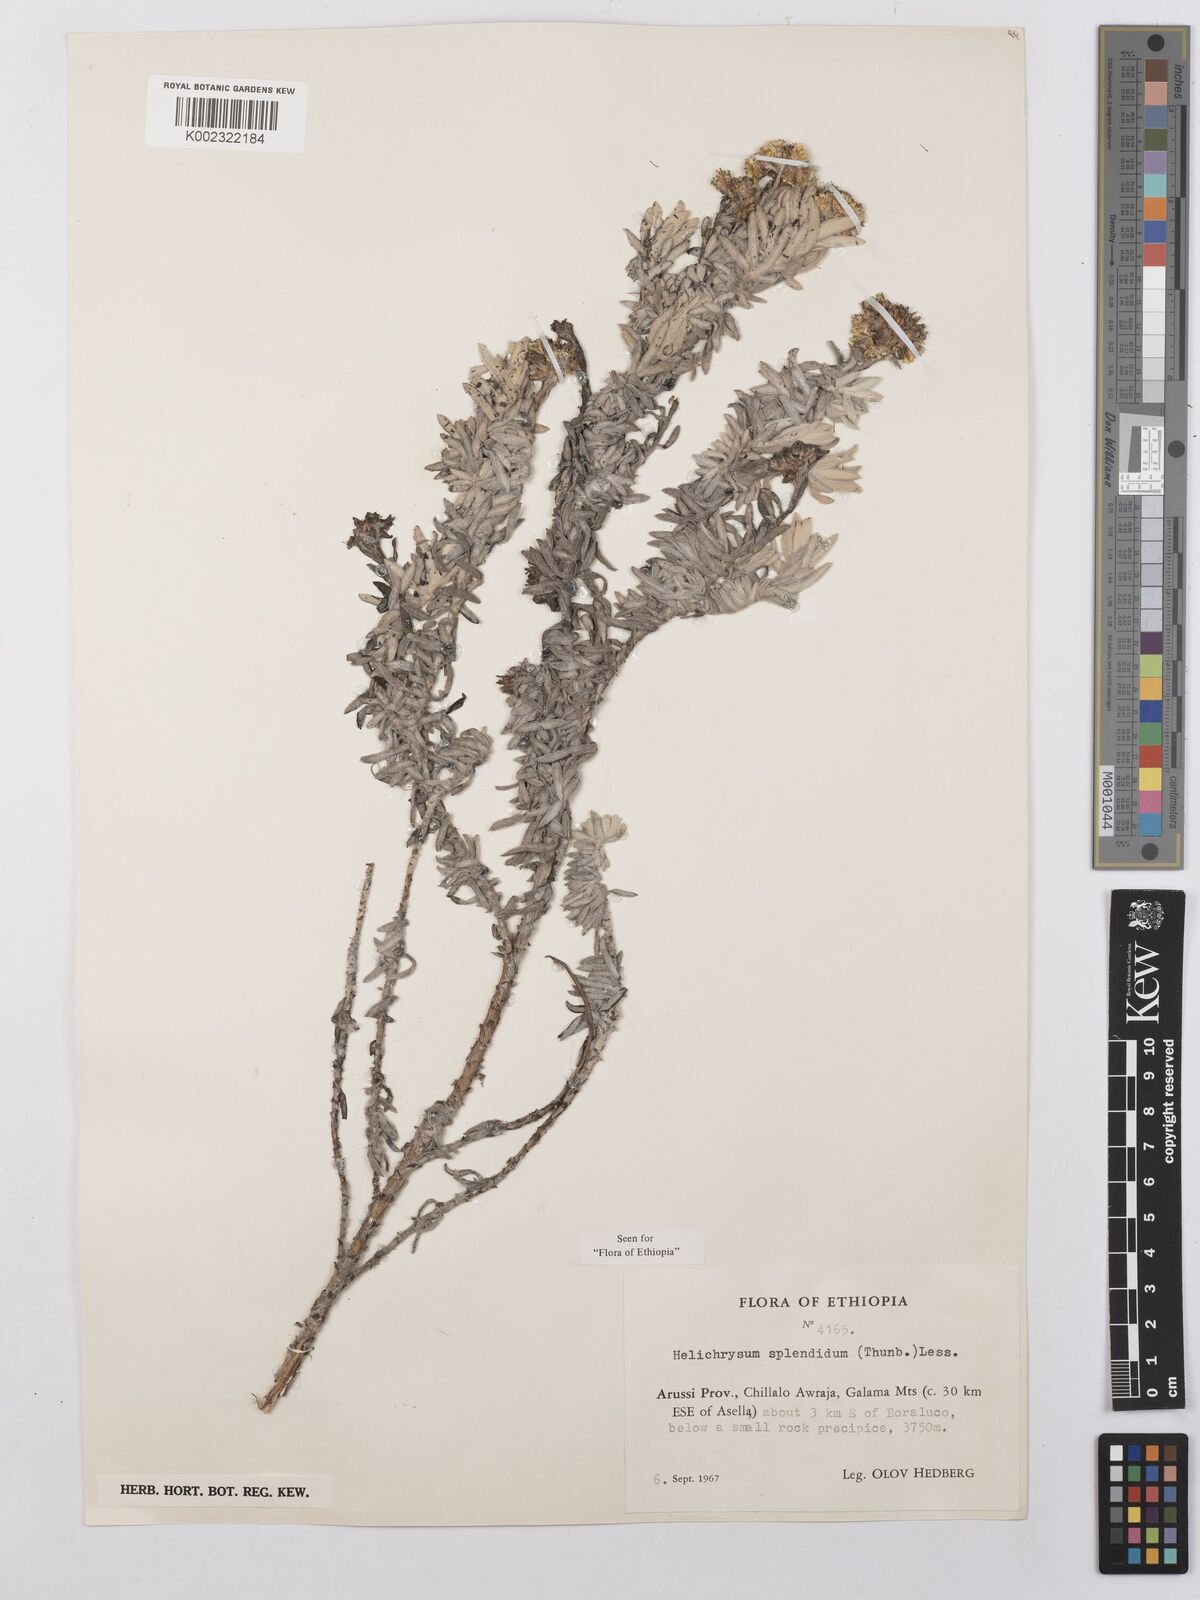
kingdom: Plantae
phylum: Tracheophyta
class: Magnoliopsida
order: Asterales
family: Asteraceae
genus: Helichrysum
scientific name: Helichrysum splendidum
